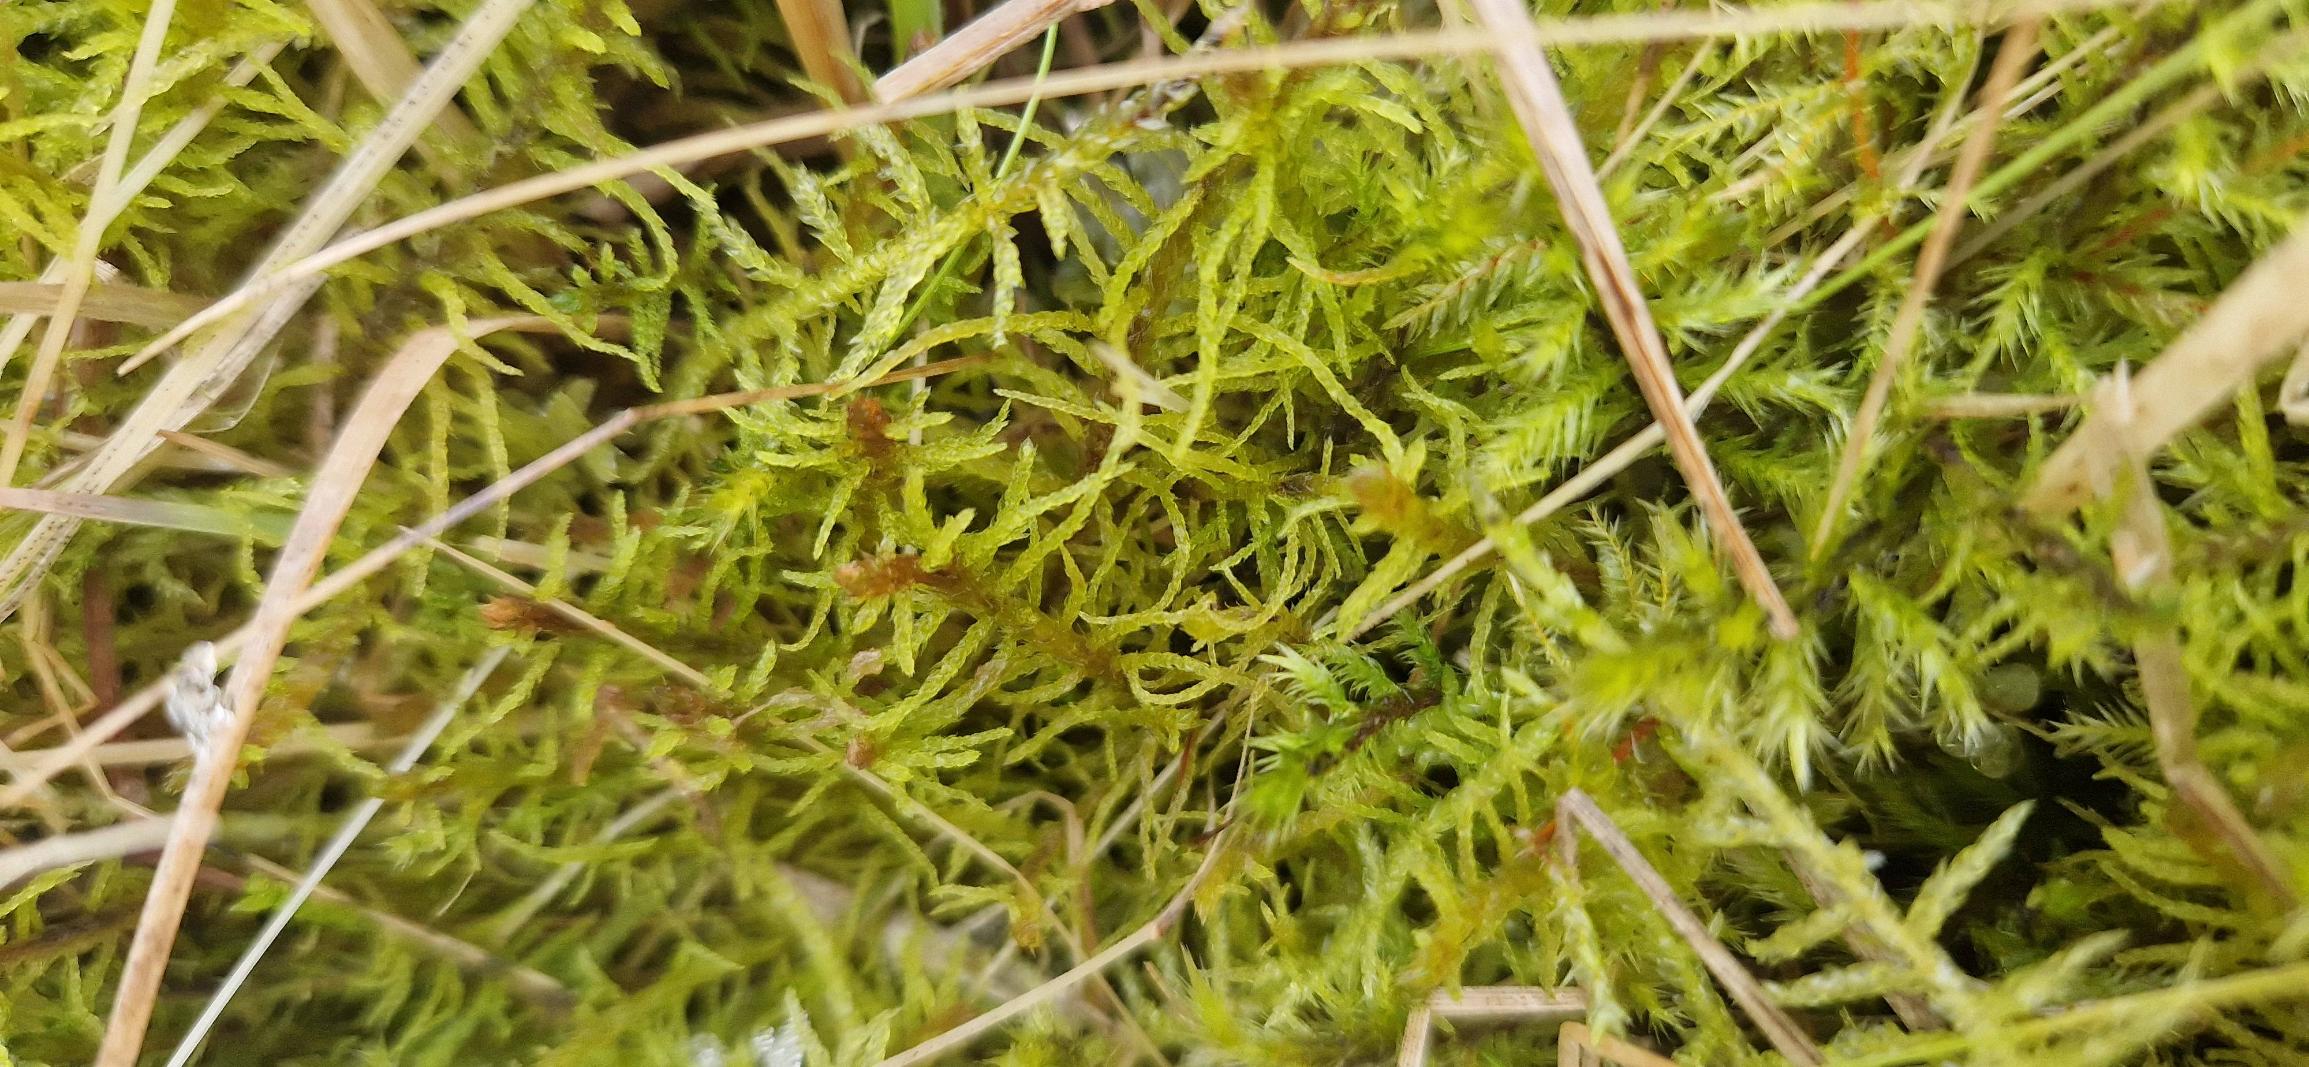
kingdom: Plantae
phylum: Bryophyta
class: Bryopsida
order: Hypnales
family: Helodiaceae
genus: Helodium
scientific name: Helodium blandowii
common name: Kær-gyldenmos
